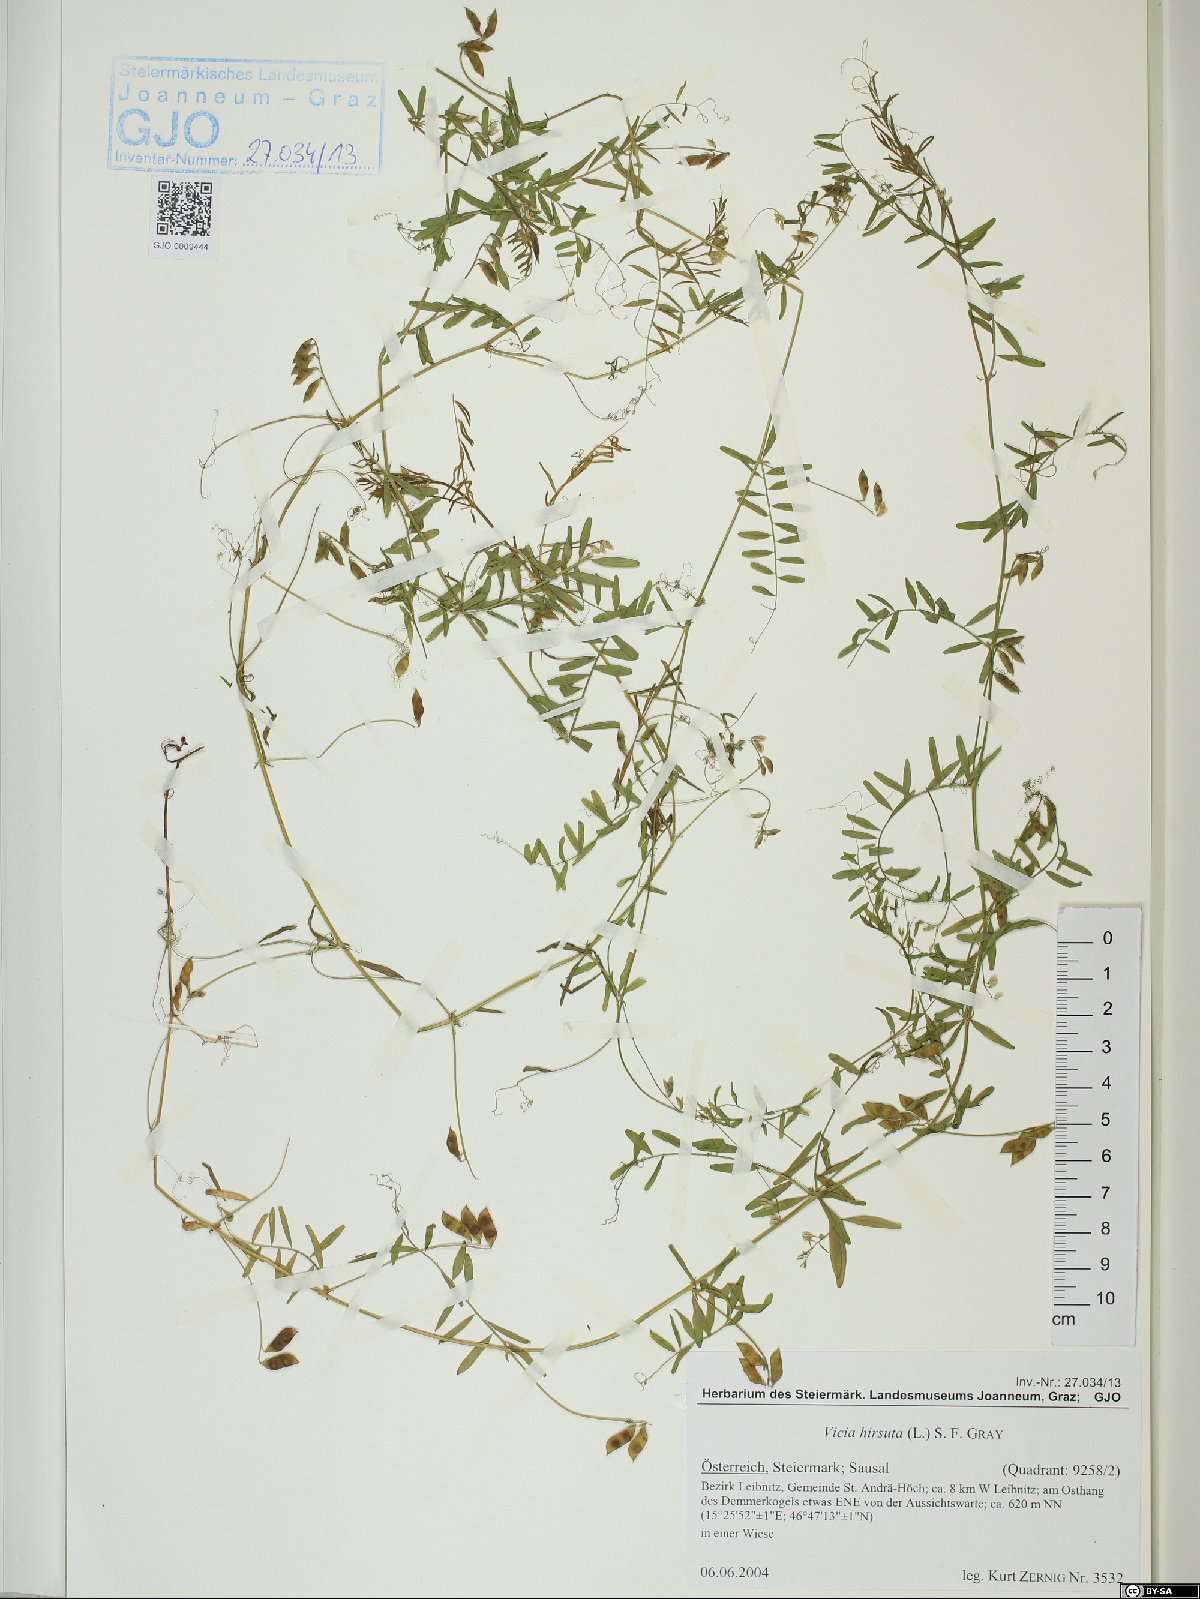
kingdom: Plantae
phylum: Tracheophyta
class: Magnoliopsida
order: Fabales
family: Fabaceae
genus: Vicia
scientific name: Vicia hirsuta
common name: Tiny vetch
